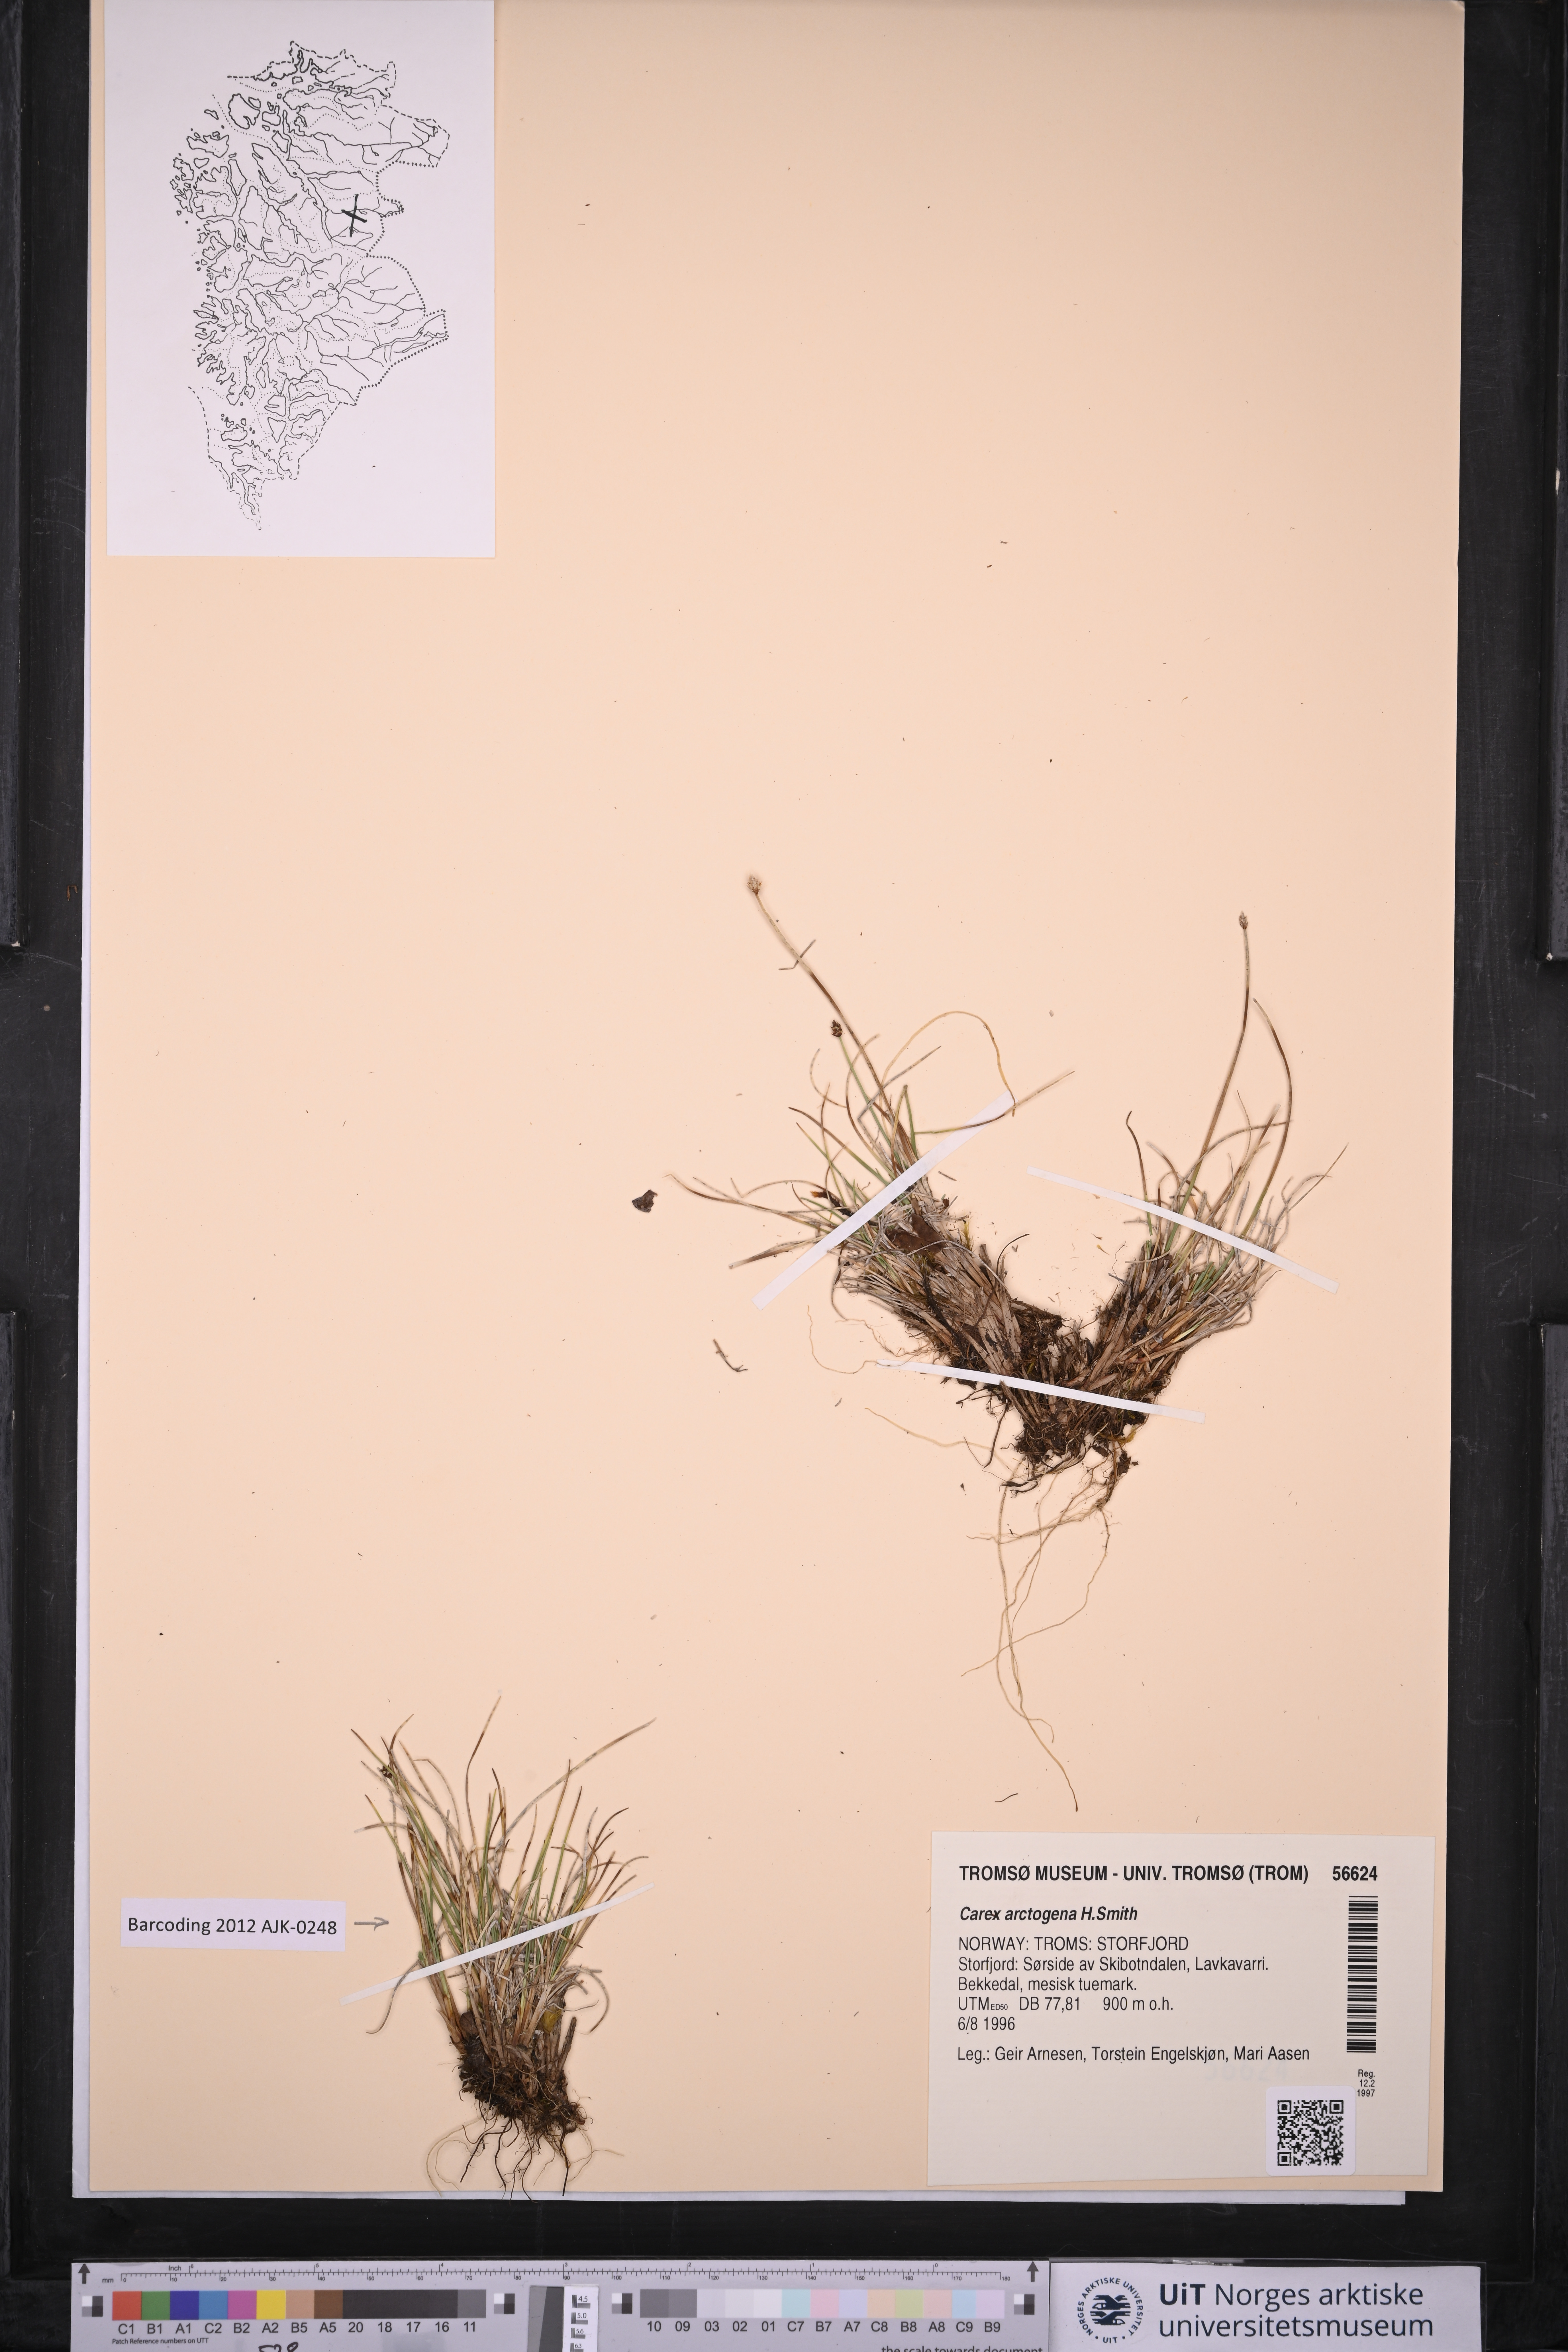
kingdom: Plantae
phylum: Tracheophyta
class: Liliopsida
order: Poales
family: Cyperaceae
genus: Carex
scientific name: Carex arctogena
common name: Black sedge
